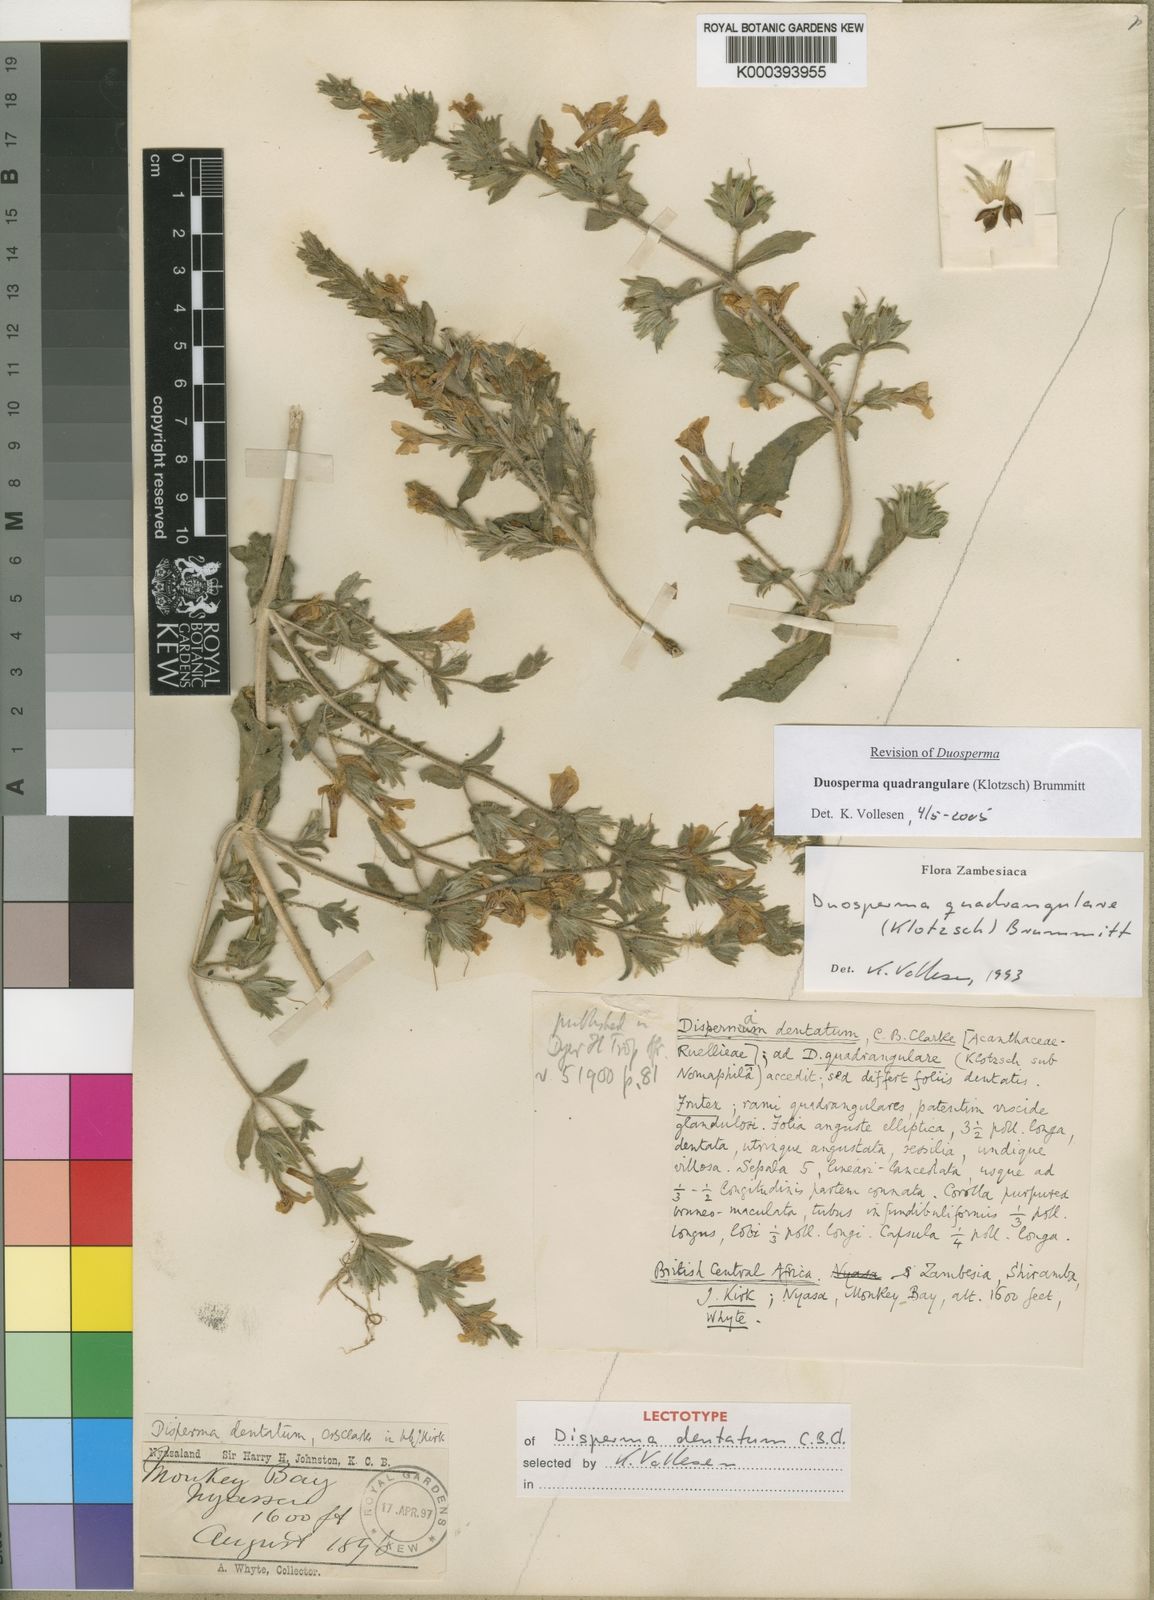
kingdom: Plantae
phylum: Tracheophyta
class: Magnoliopsida
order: Lamiales
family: Acanthaceae
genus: Duosperma
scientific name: Duosperma quadrangulare
